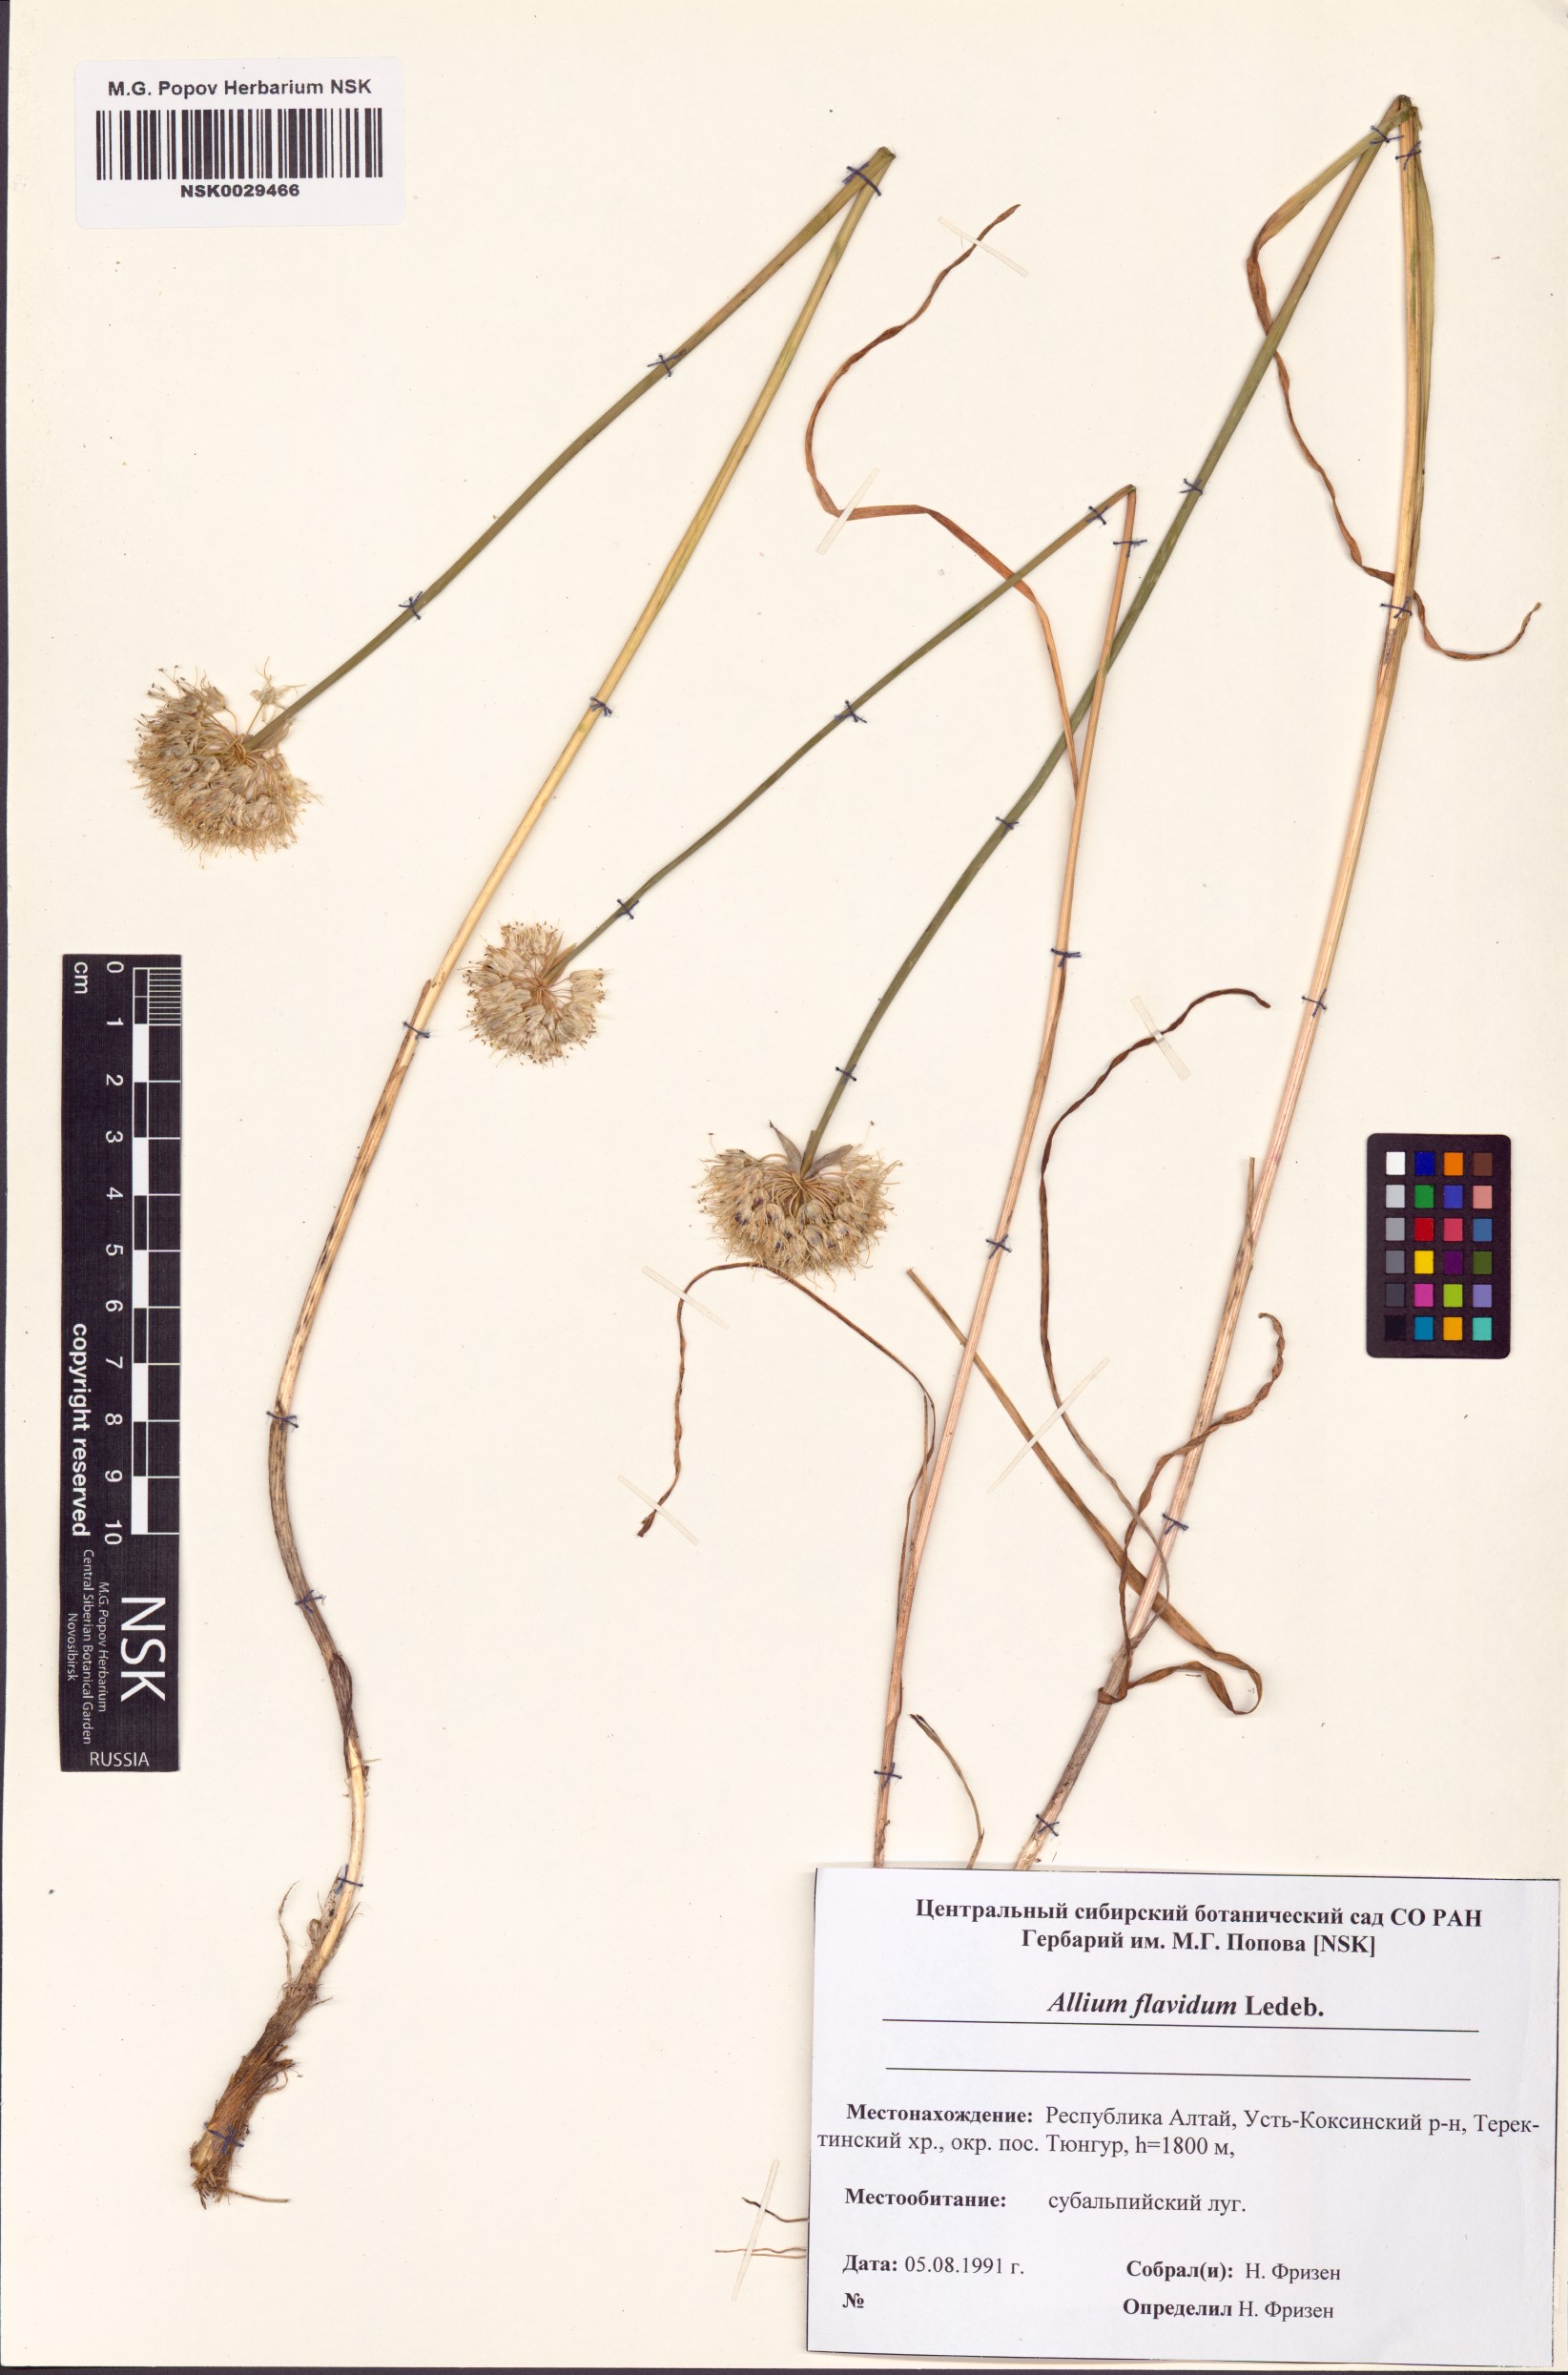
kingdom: Plantae
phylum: Tracheophyta
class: Liliopsida
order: Asparagales
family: Amaryllidaceae
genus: Allium
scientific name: Allium flavidum
